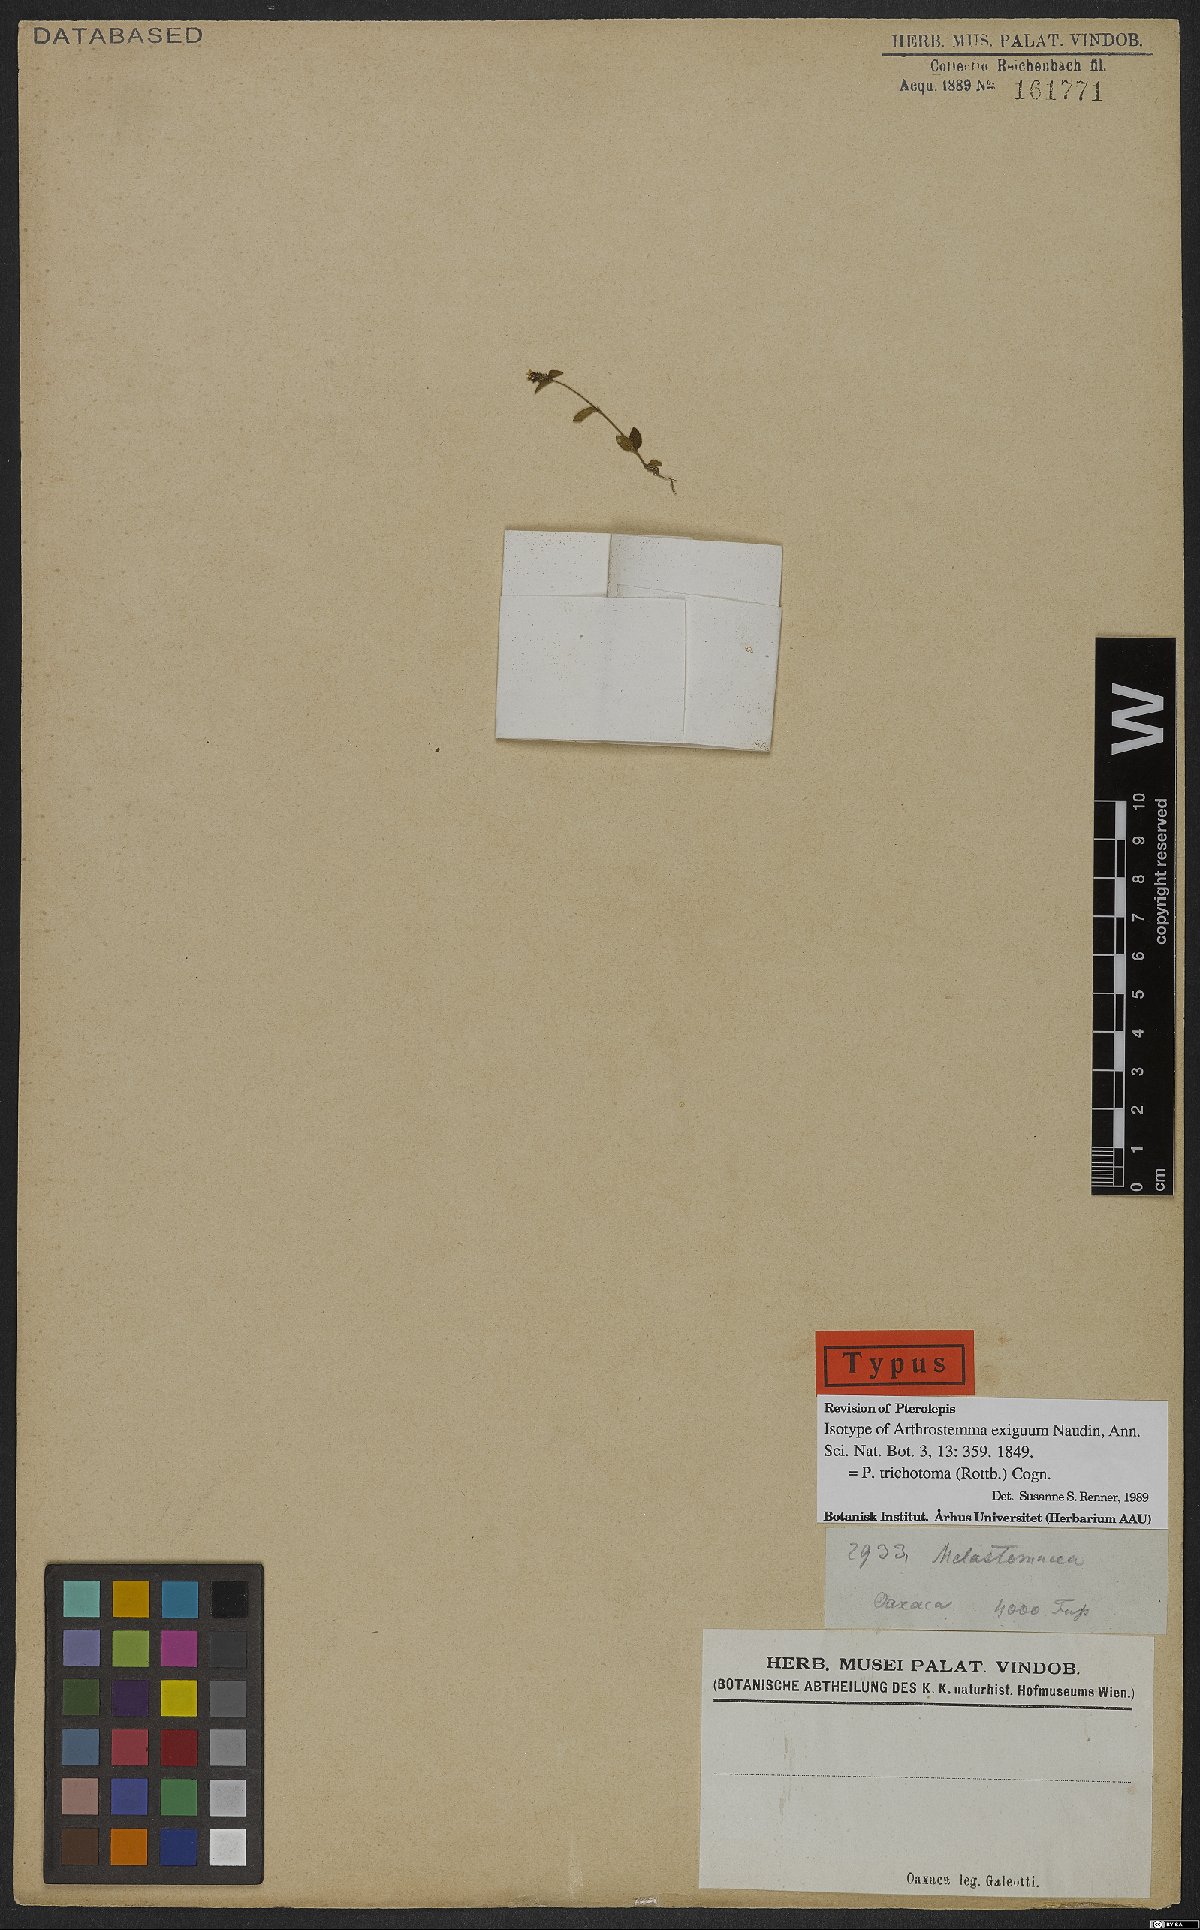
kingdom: Plantae
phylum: Tracheophyta
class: Magnoliopsida
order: Myrtales
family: Melastomataceae
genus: Pterolepis
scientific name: Pterolepis trichotoma
